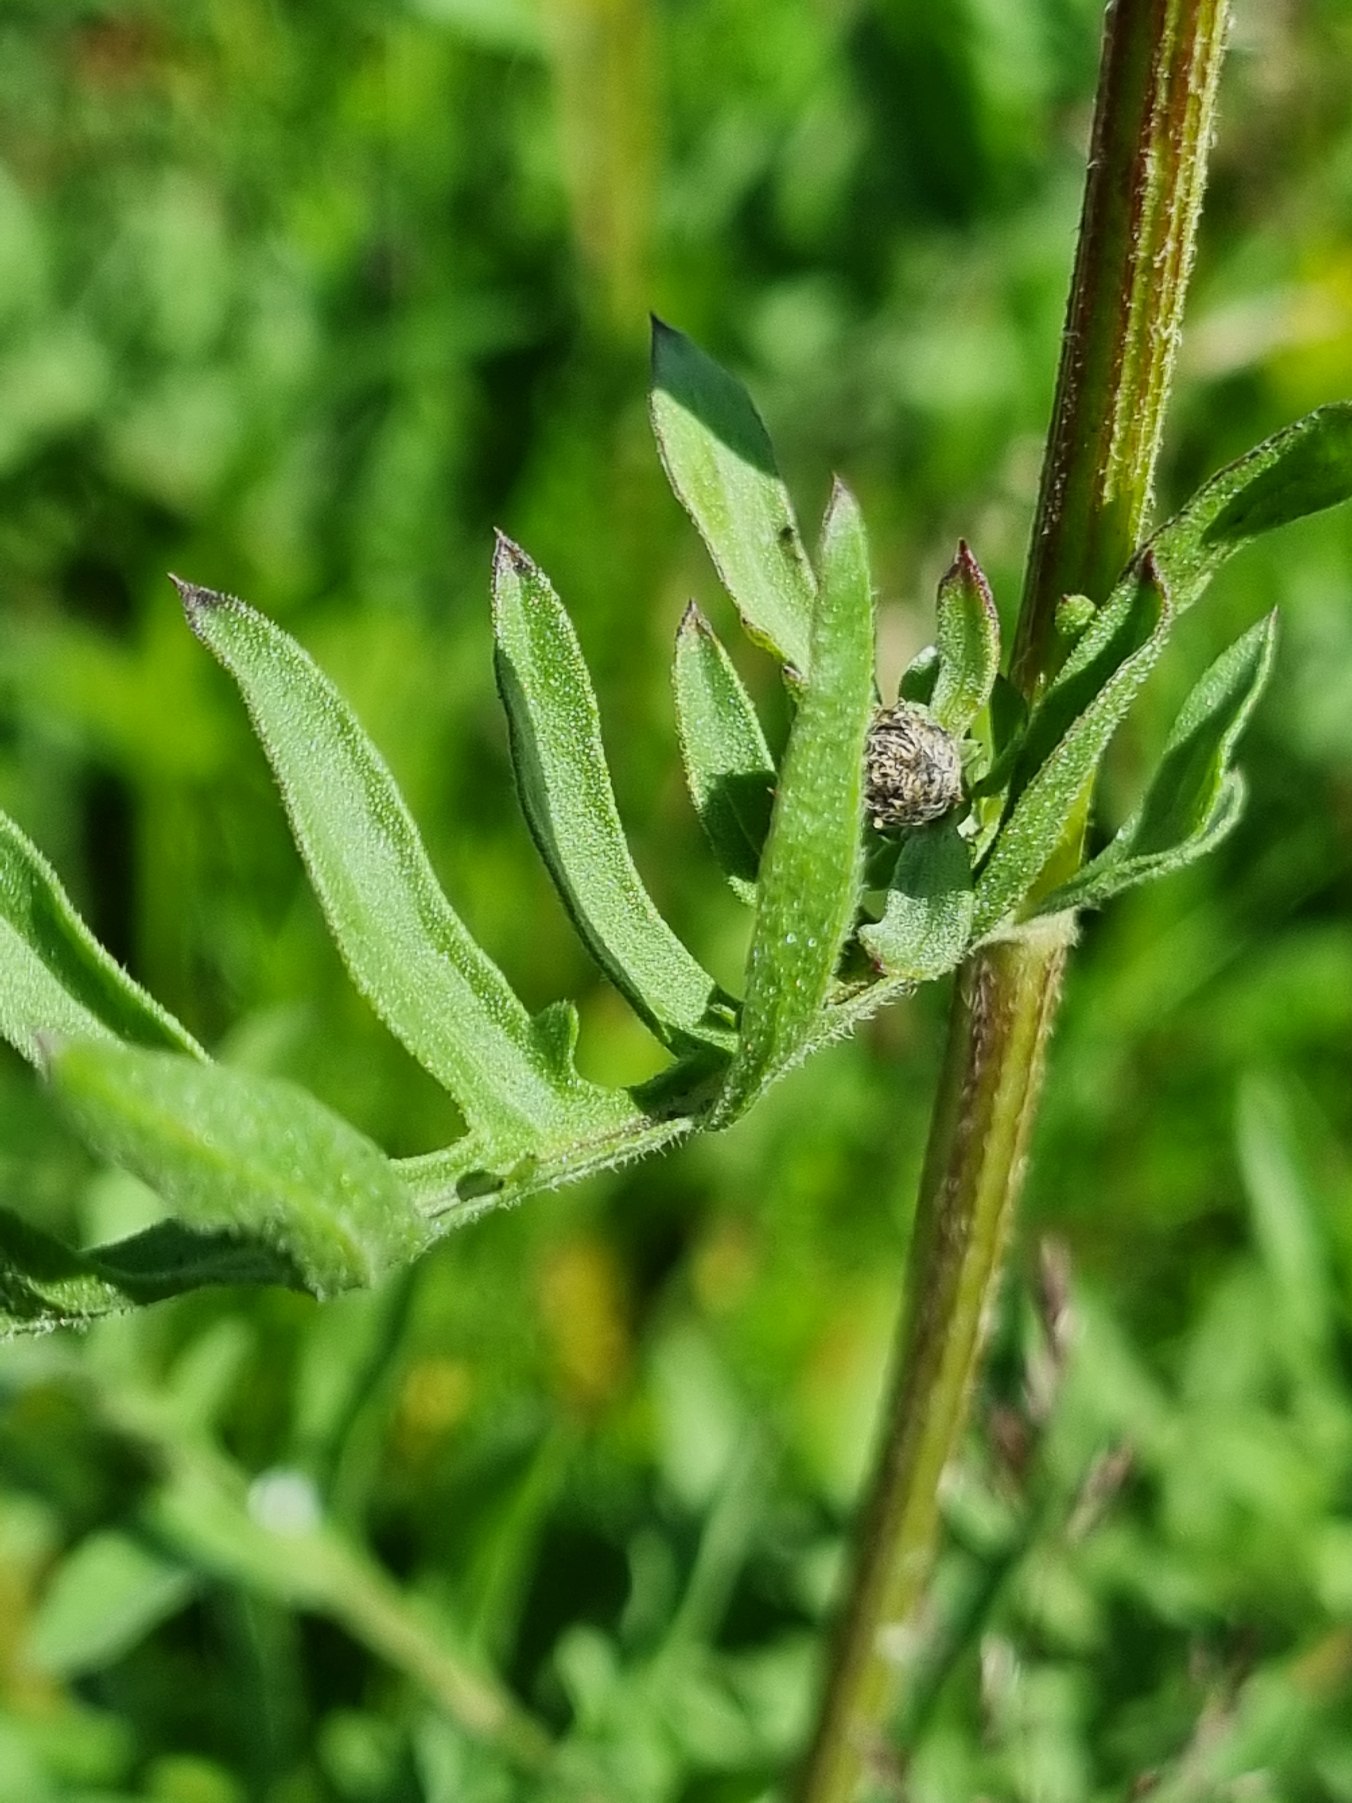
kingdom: Plantae
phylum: Tracheophyta
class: Magnoliopsida
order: Asterales
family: Asteraceae
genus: Centaurea
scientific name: Centaurea scabiosa
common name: Stor knopurt
